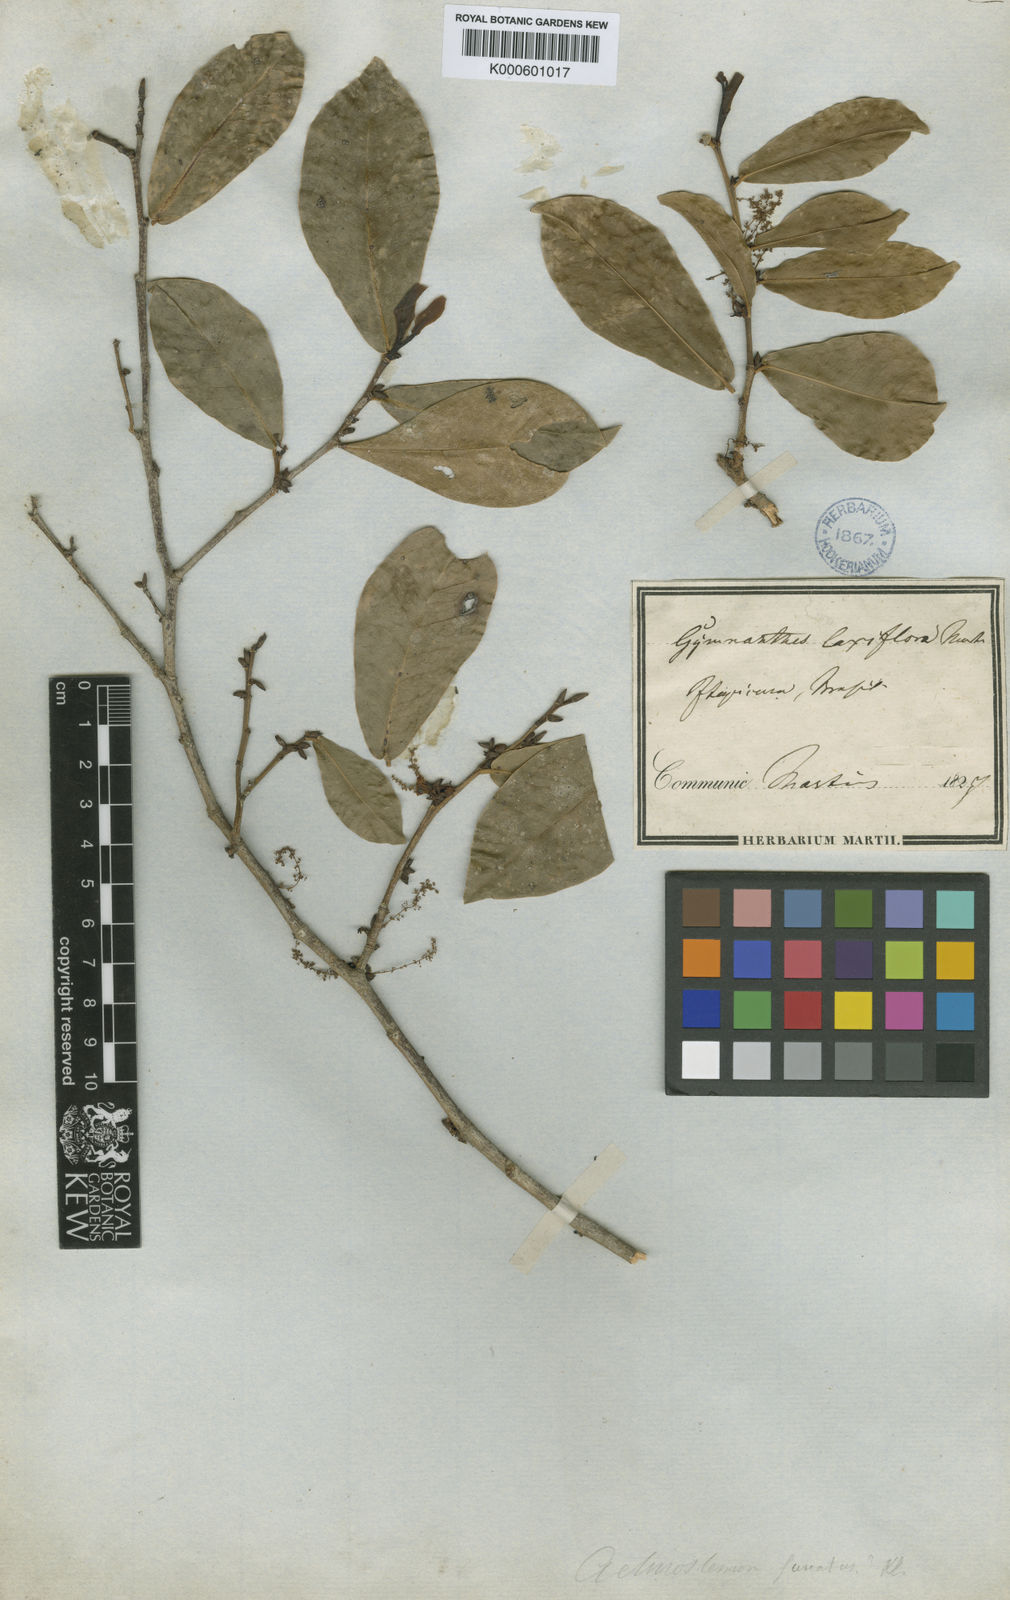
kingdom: Plantae
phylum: Tracheophyta
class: Magnoliopsida
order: Malpighiales
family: Euphorbiaceae
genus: Actinostemon
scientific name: Actinostemon
